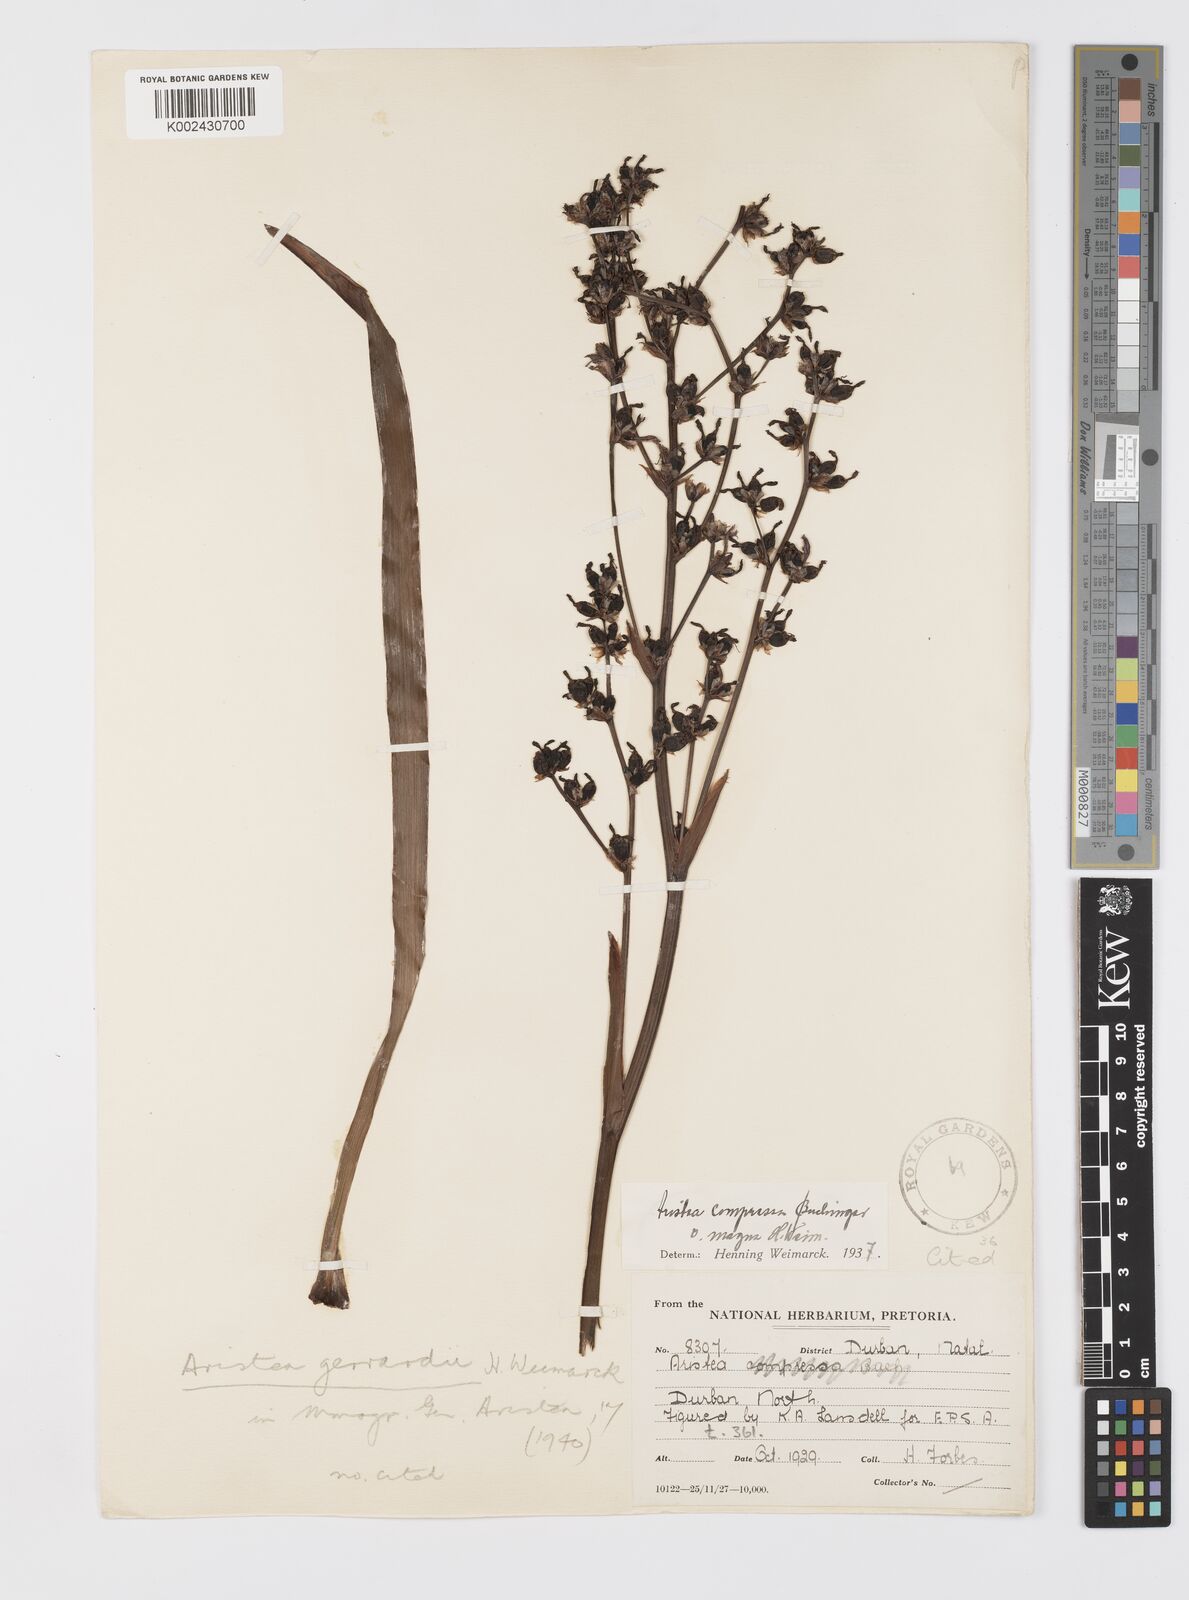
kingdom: Plantae
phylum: Tracheophyta
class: Liliopsida
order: Asparagales
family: Iridaceae
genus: Aristea
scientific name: Aristea compressa
